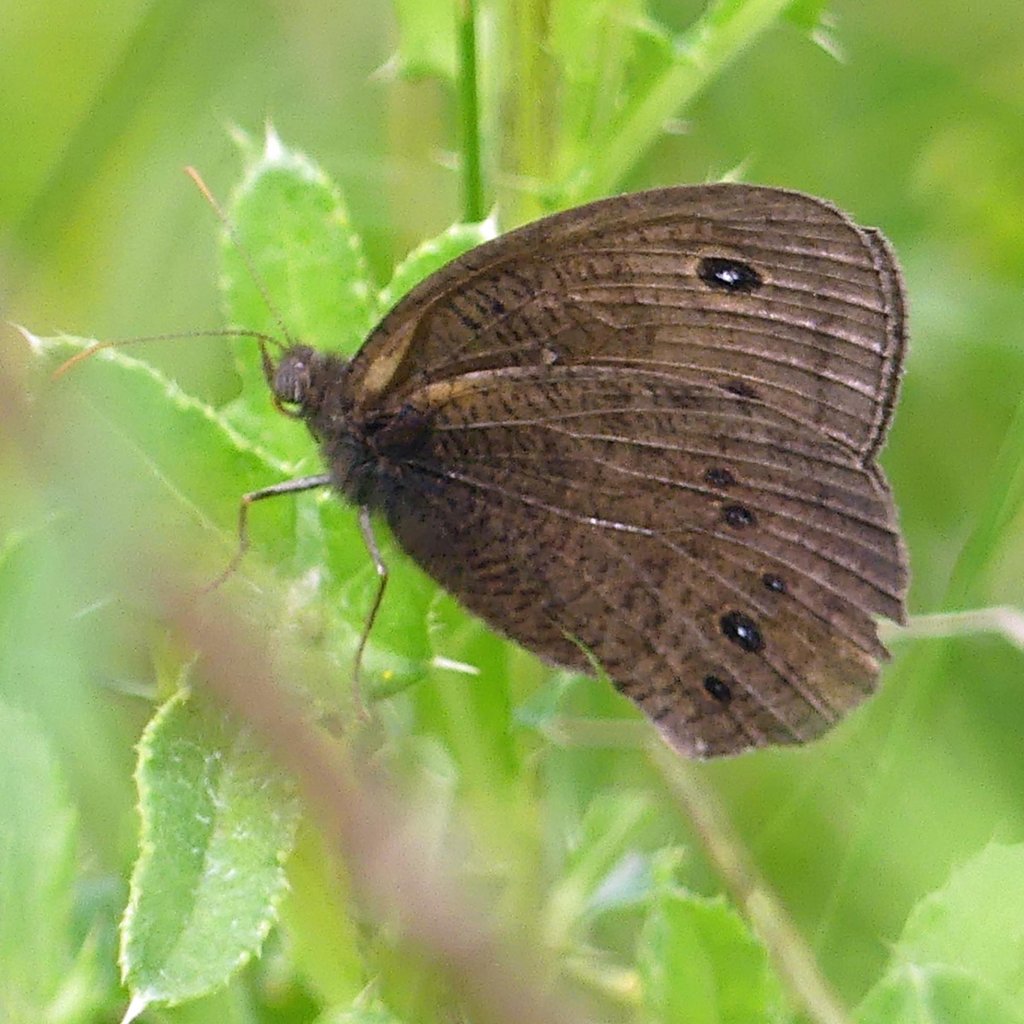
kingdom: Animalia
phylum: Arthropoda
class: Insecta
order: Lepidoptera
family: Nymphalidae
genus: Cercyonis
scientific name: Cercyonis pegala
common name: Common Wood-Nymph
